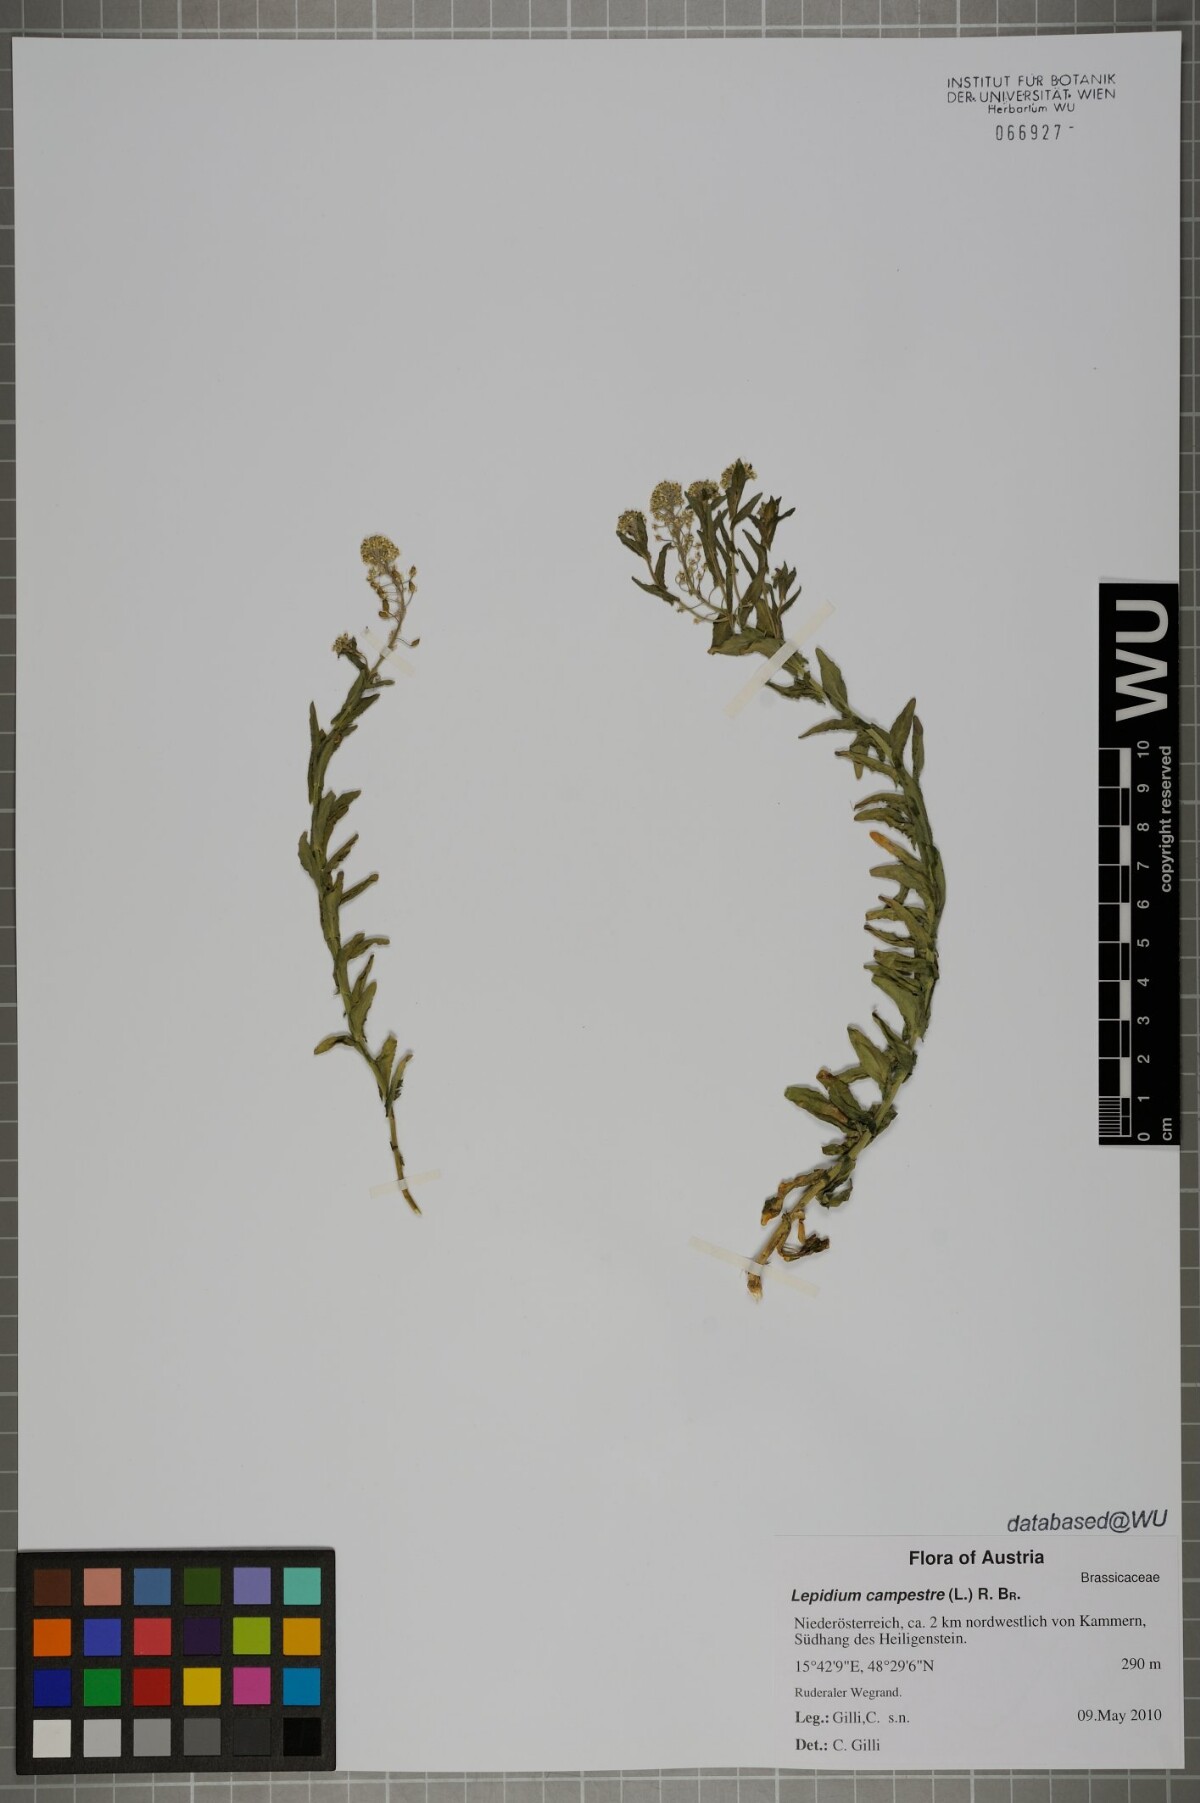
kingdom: Plantae
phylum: Tracheophyta
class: Magnoliopsida
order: Brassicales
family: Brassicaceae
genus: Lepidium
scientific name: Lepidium campestre
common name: Field pepperwort
